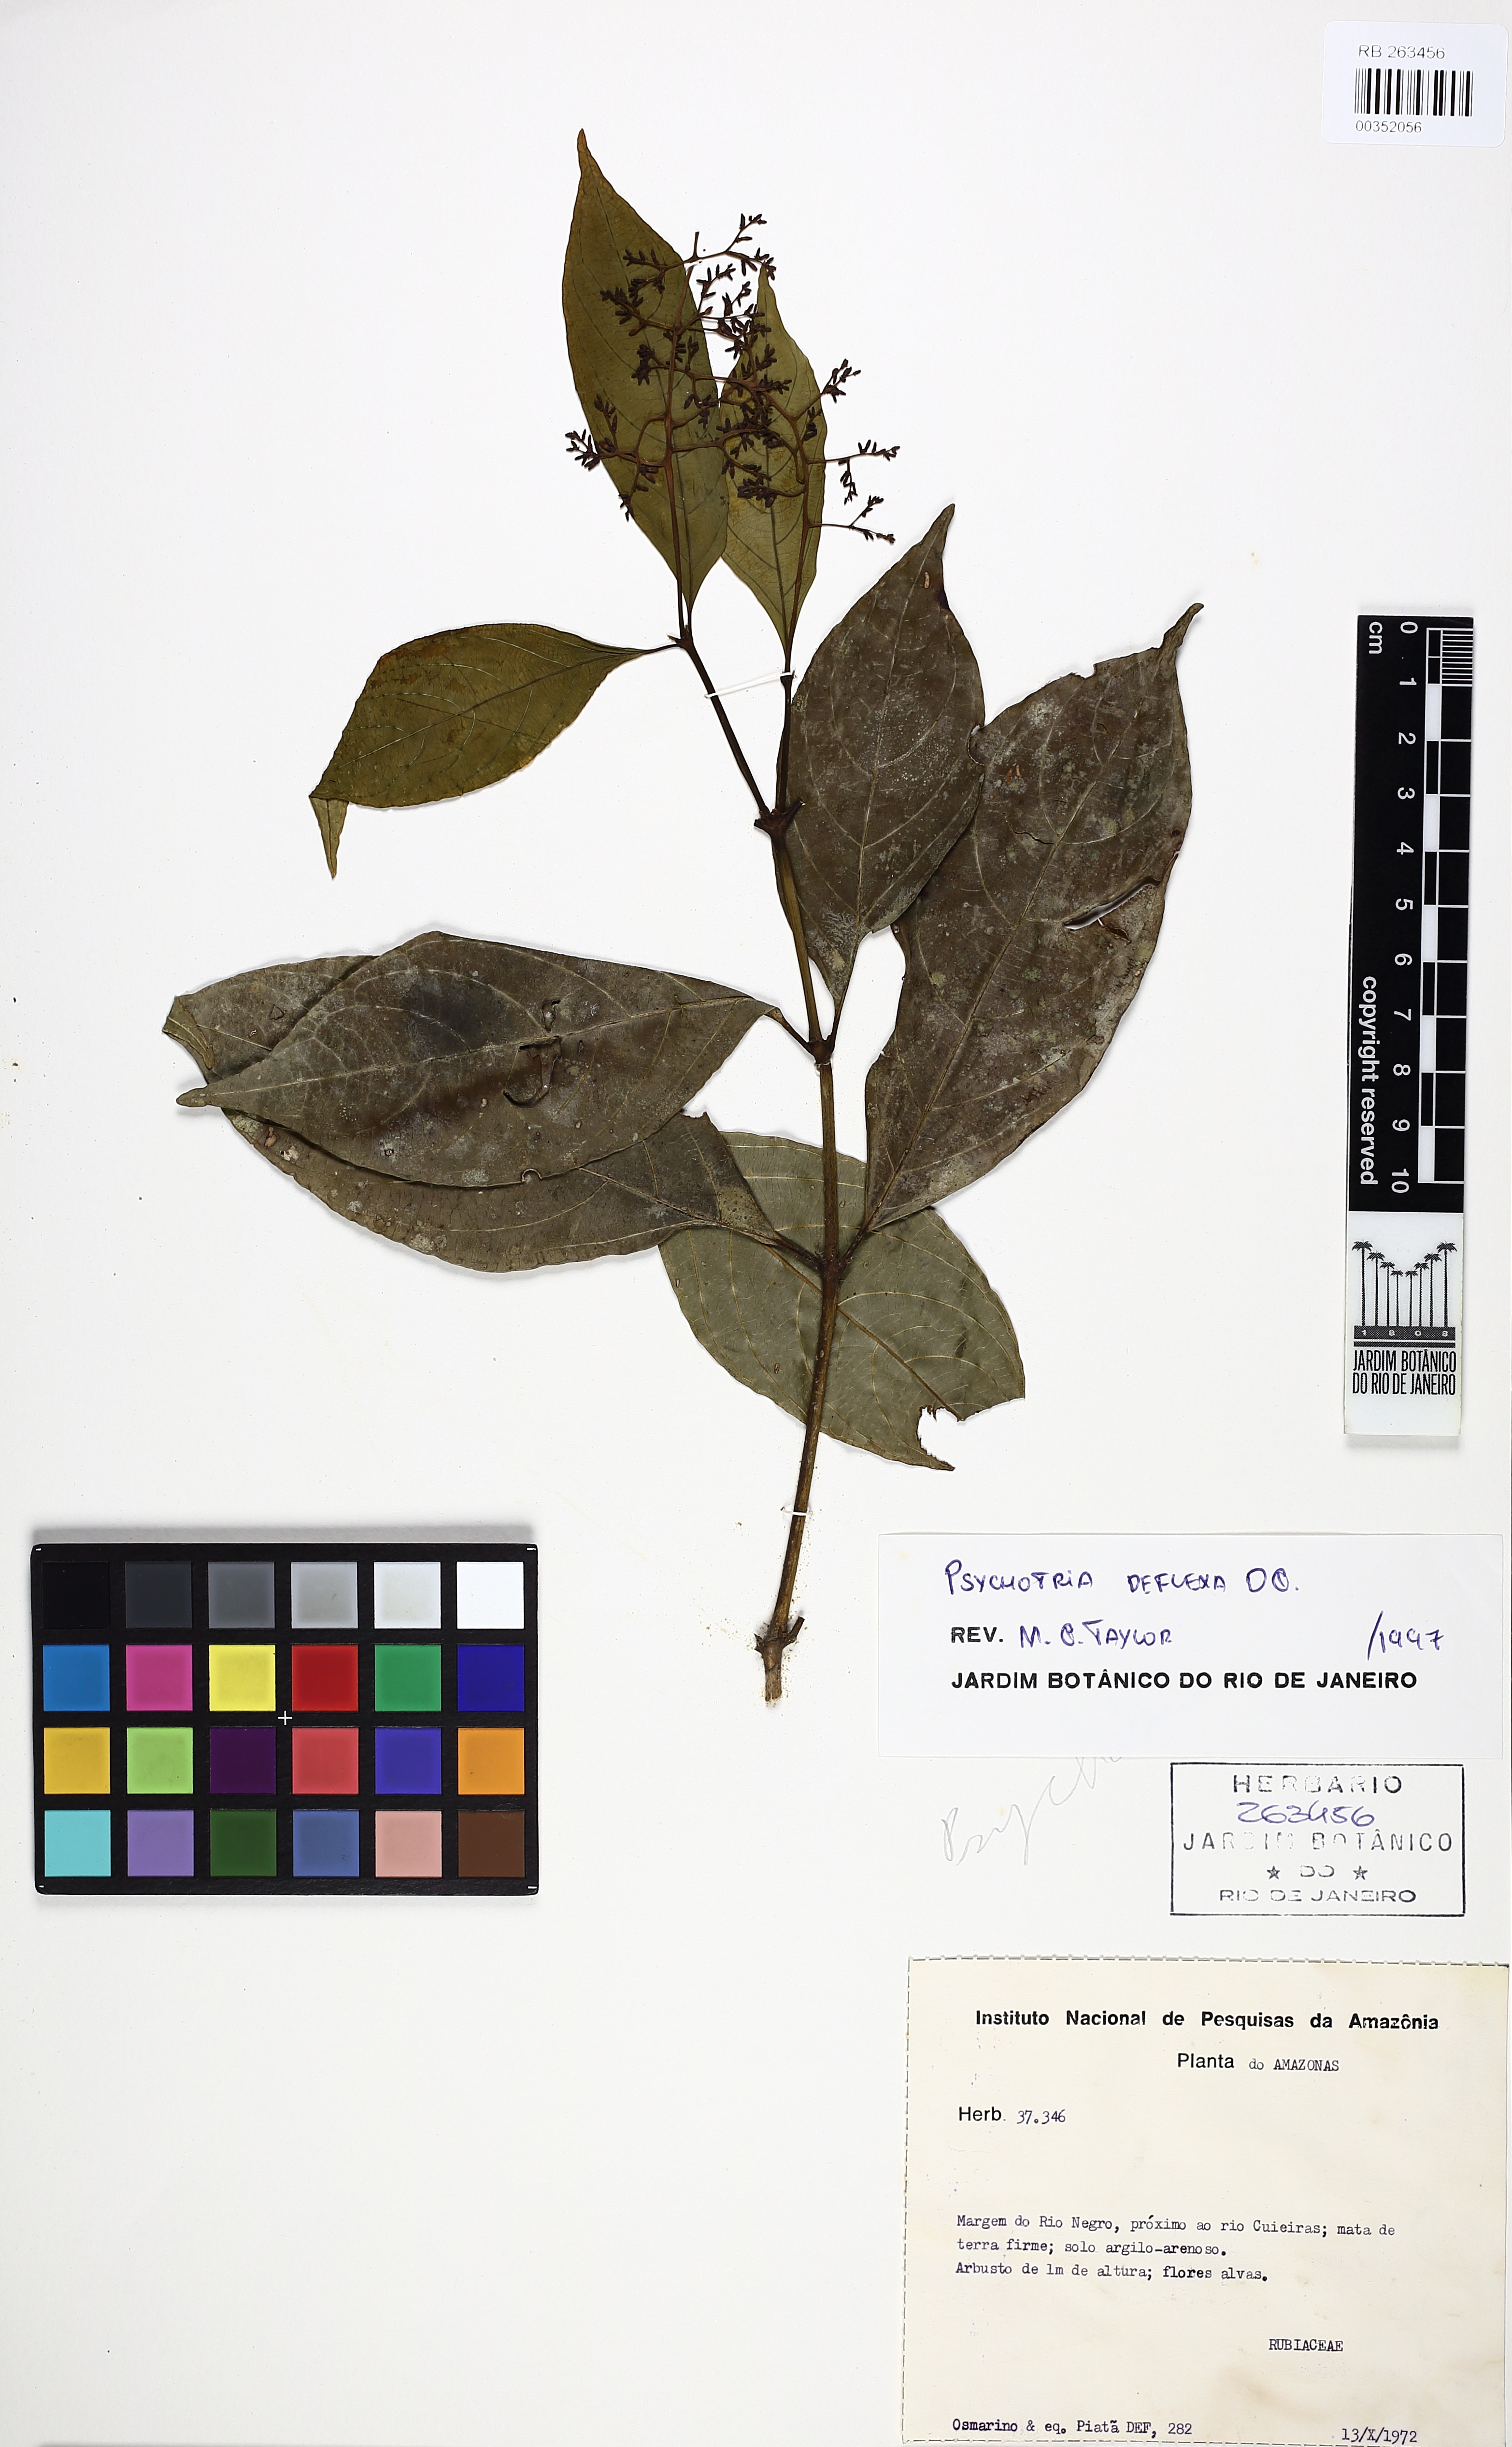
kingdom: Plantae
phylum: Tracheophyta
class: Magnoliopsida
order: Gentianales
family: Rubiaceae
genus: Palicourea
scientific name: Palicourea deflexa
